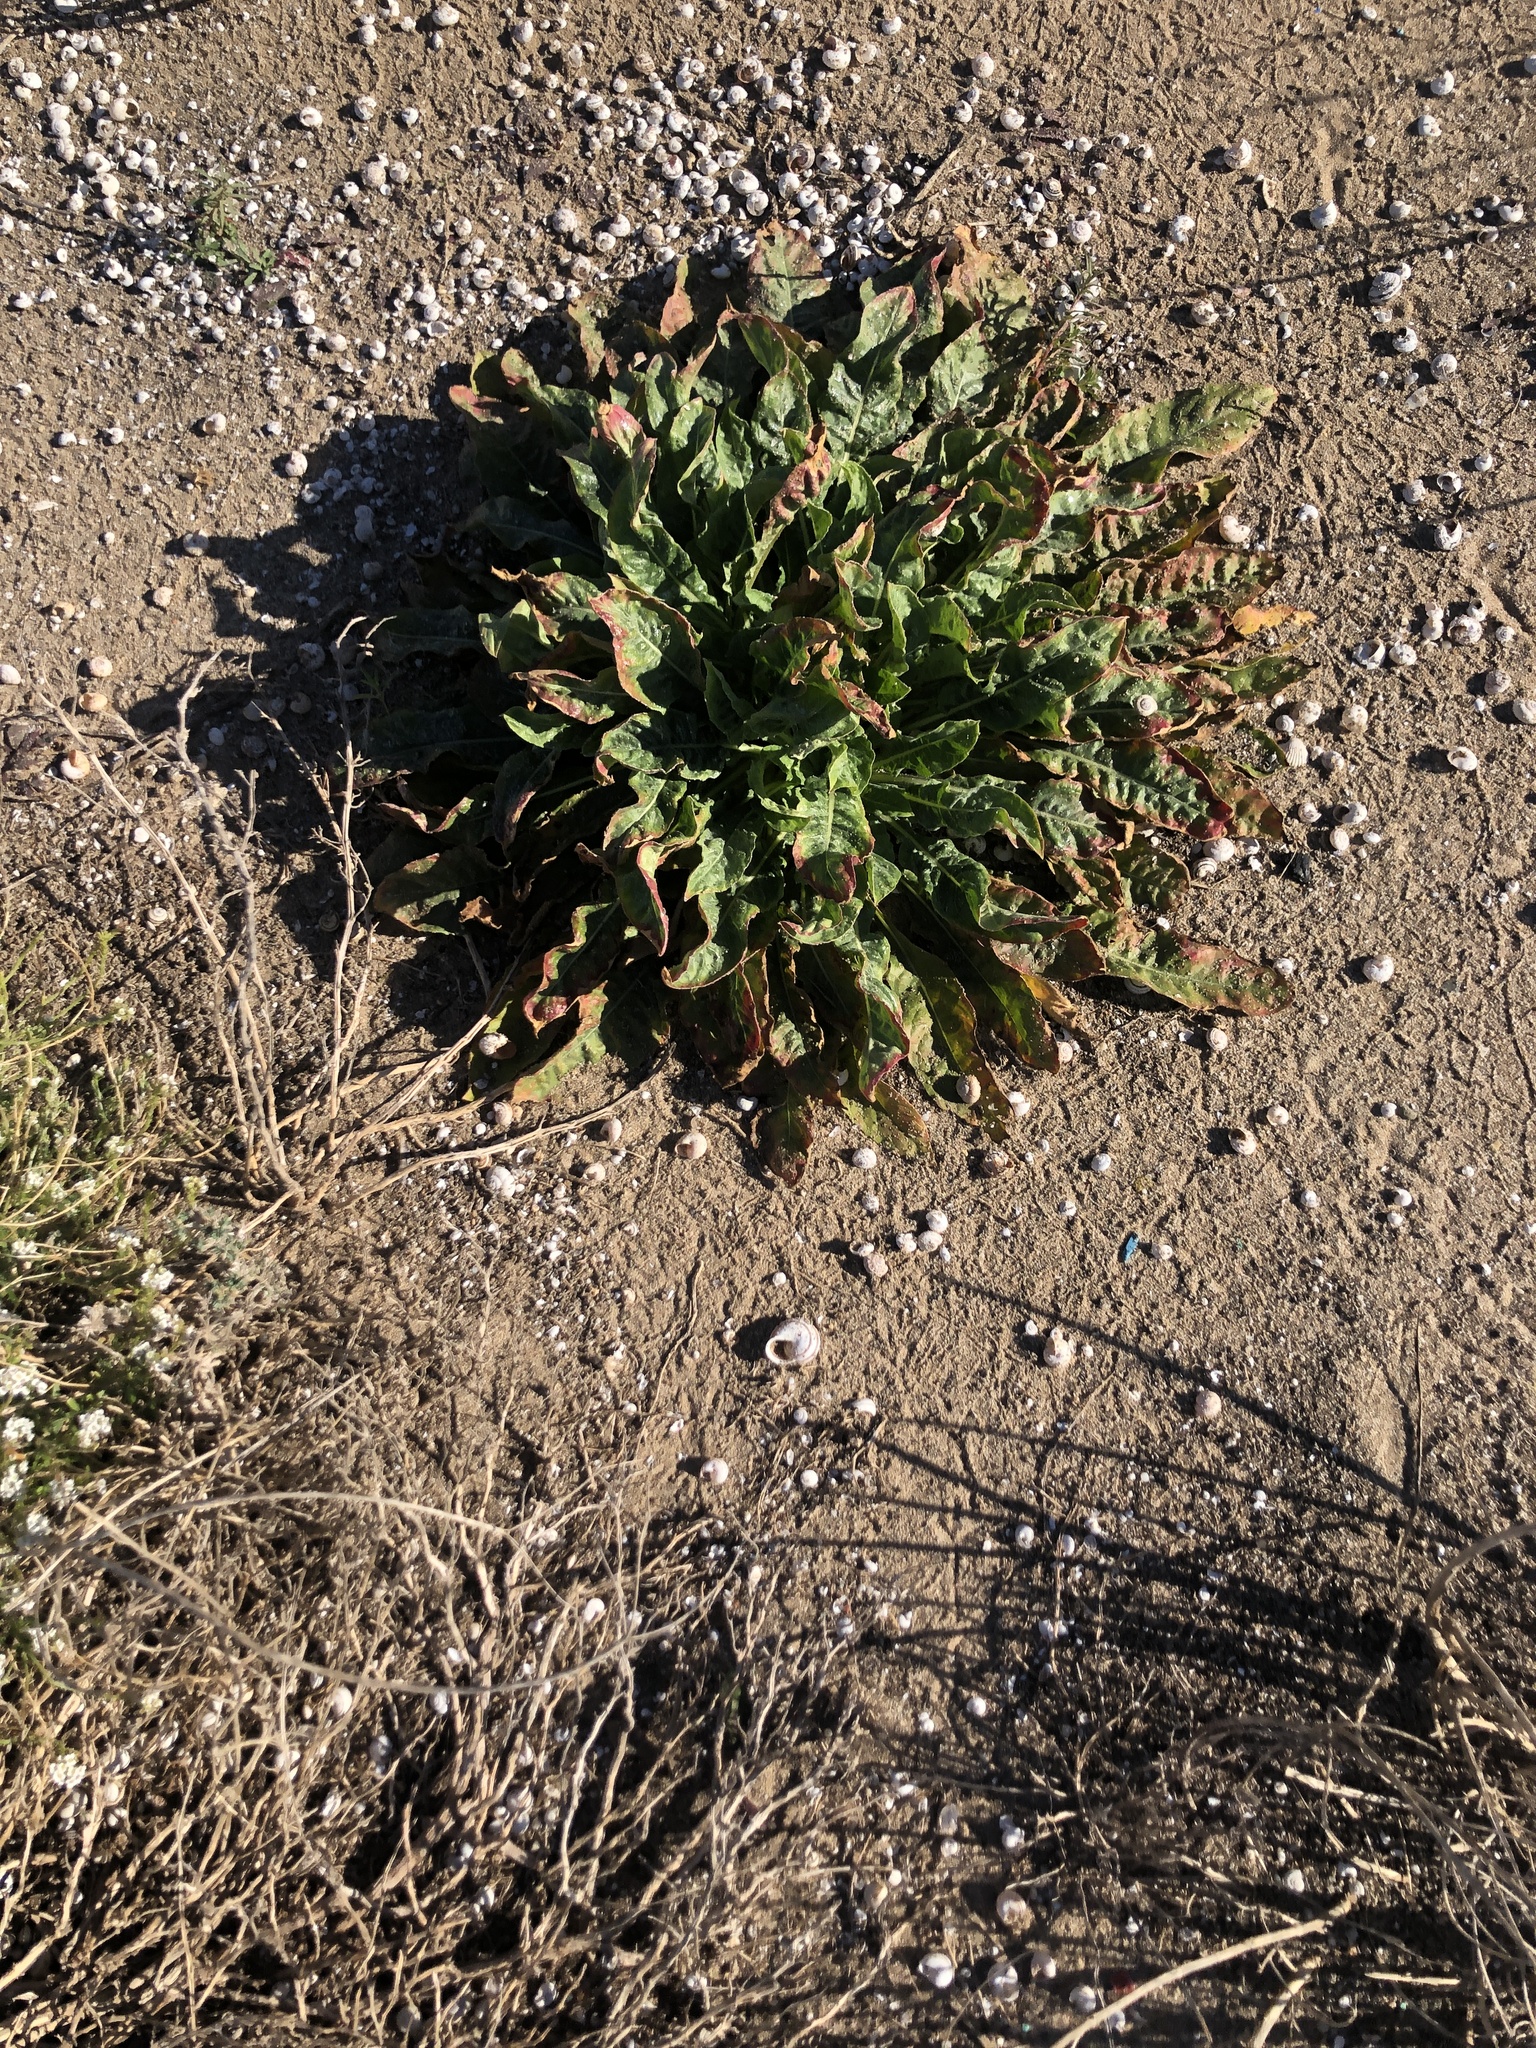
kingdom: Plantae
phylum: Tracheophyta
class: Magnoliopsida
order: Myrtales
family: Onagraceae
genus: Oenothera
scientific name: Oenothera glazioviana
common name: Large-flowered evening-primrose
